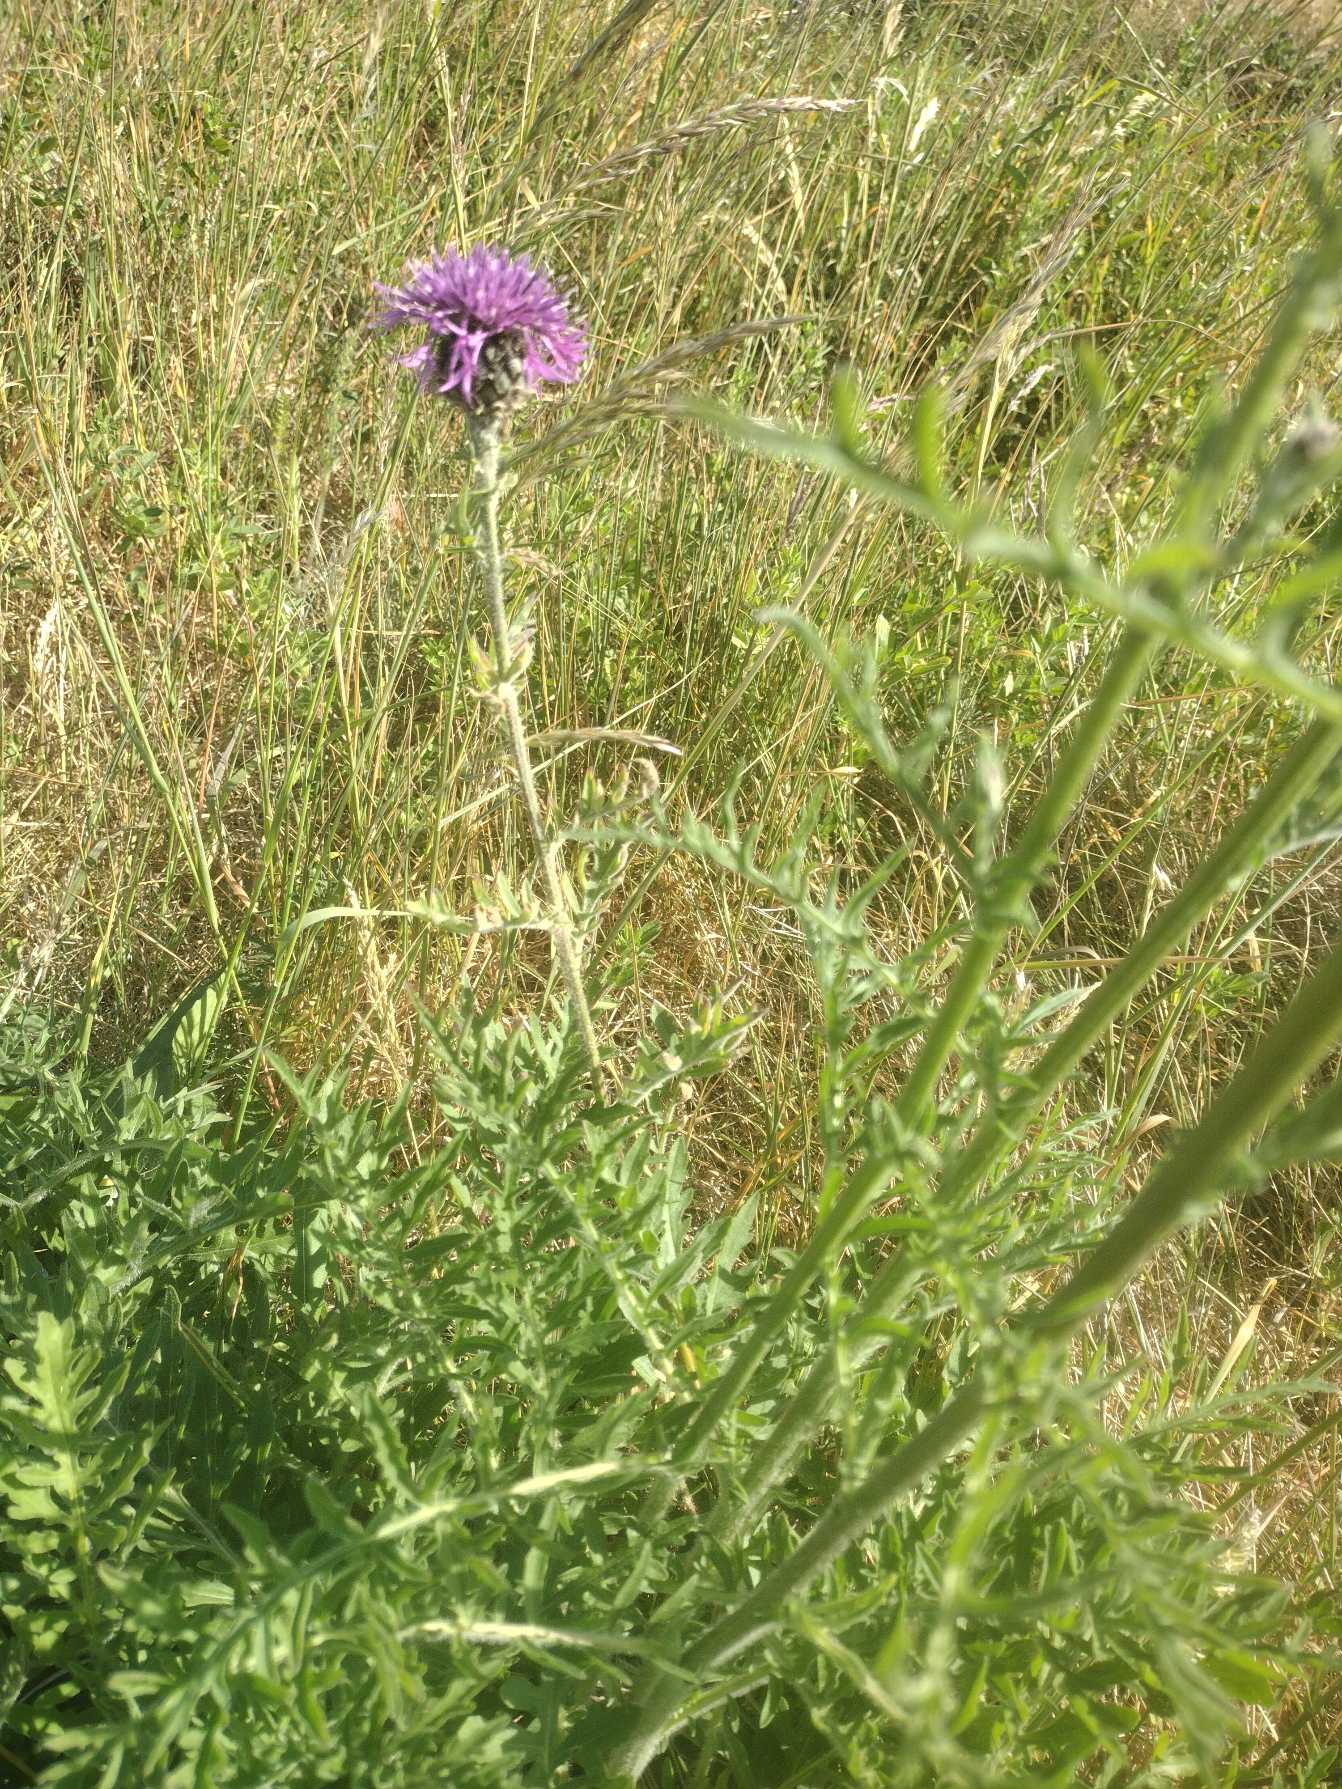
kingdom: Plantae
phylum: Tracheophyta
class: Magnoliopsida
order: Asterales
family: Asteraceae
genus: Centaurea
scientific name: Centaurea scabiosa
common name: Stor knopurt
